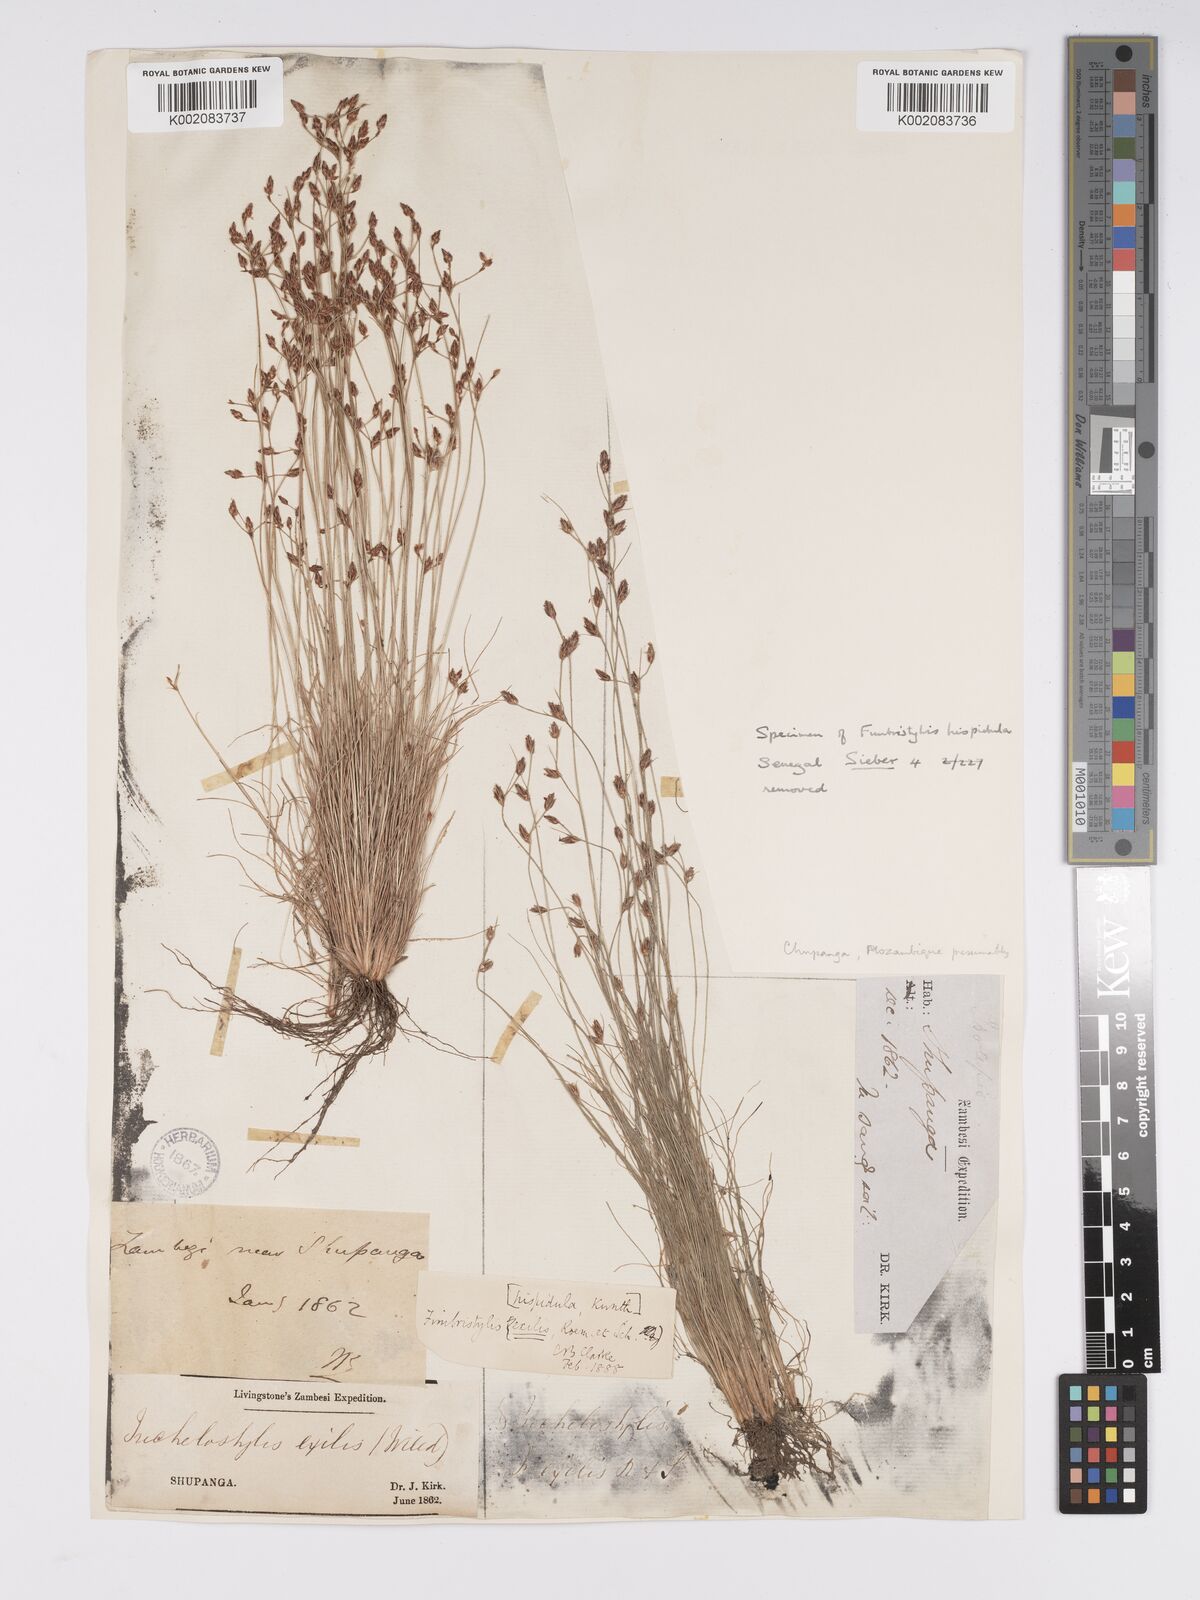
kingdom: Plantae
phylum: Tracheophyta
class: Liliopsida
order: Poales
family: Cyperaceae
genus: Bulbostylis
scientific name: Bulbostylis hispidula
